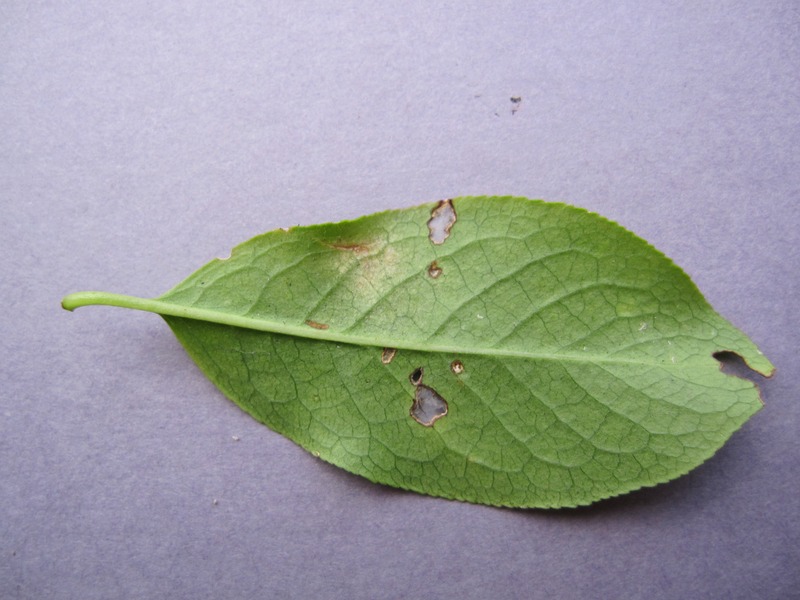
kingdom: Fungi
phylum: Ascomycota
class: Leotiomycetes
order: Helotiales
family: Erysiphaceae
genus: Erysiphe
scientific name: Erysiphe euonymi
